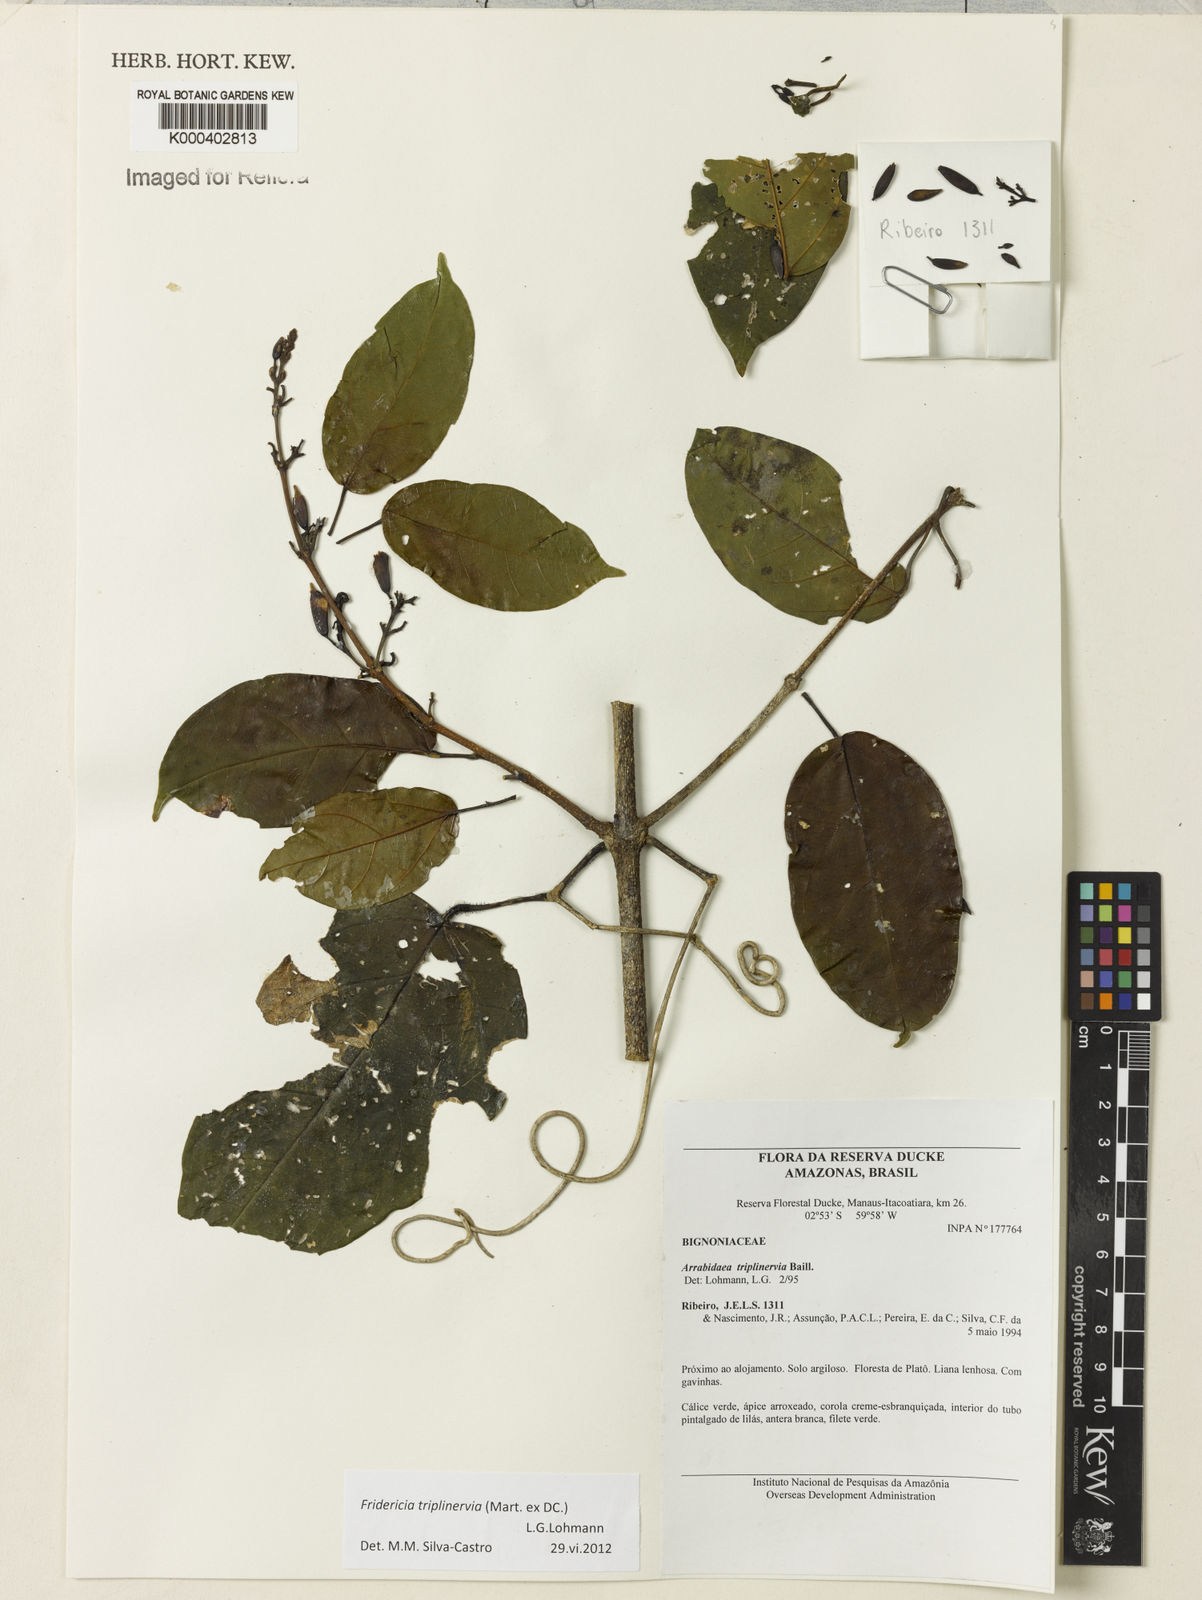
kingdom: Plantae
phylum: Tracheophyta
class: Magnoliopsida
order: Lamiales
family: Bignoniaceae
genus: Fridericia
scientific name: Fridericia triplinervia
